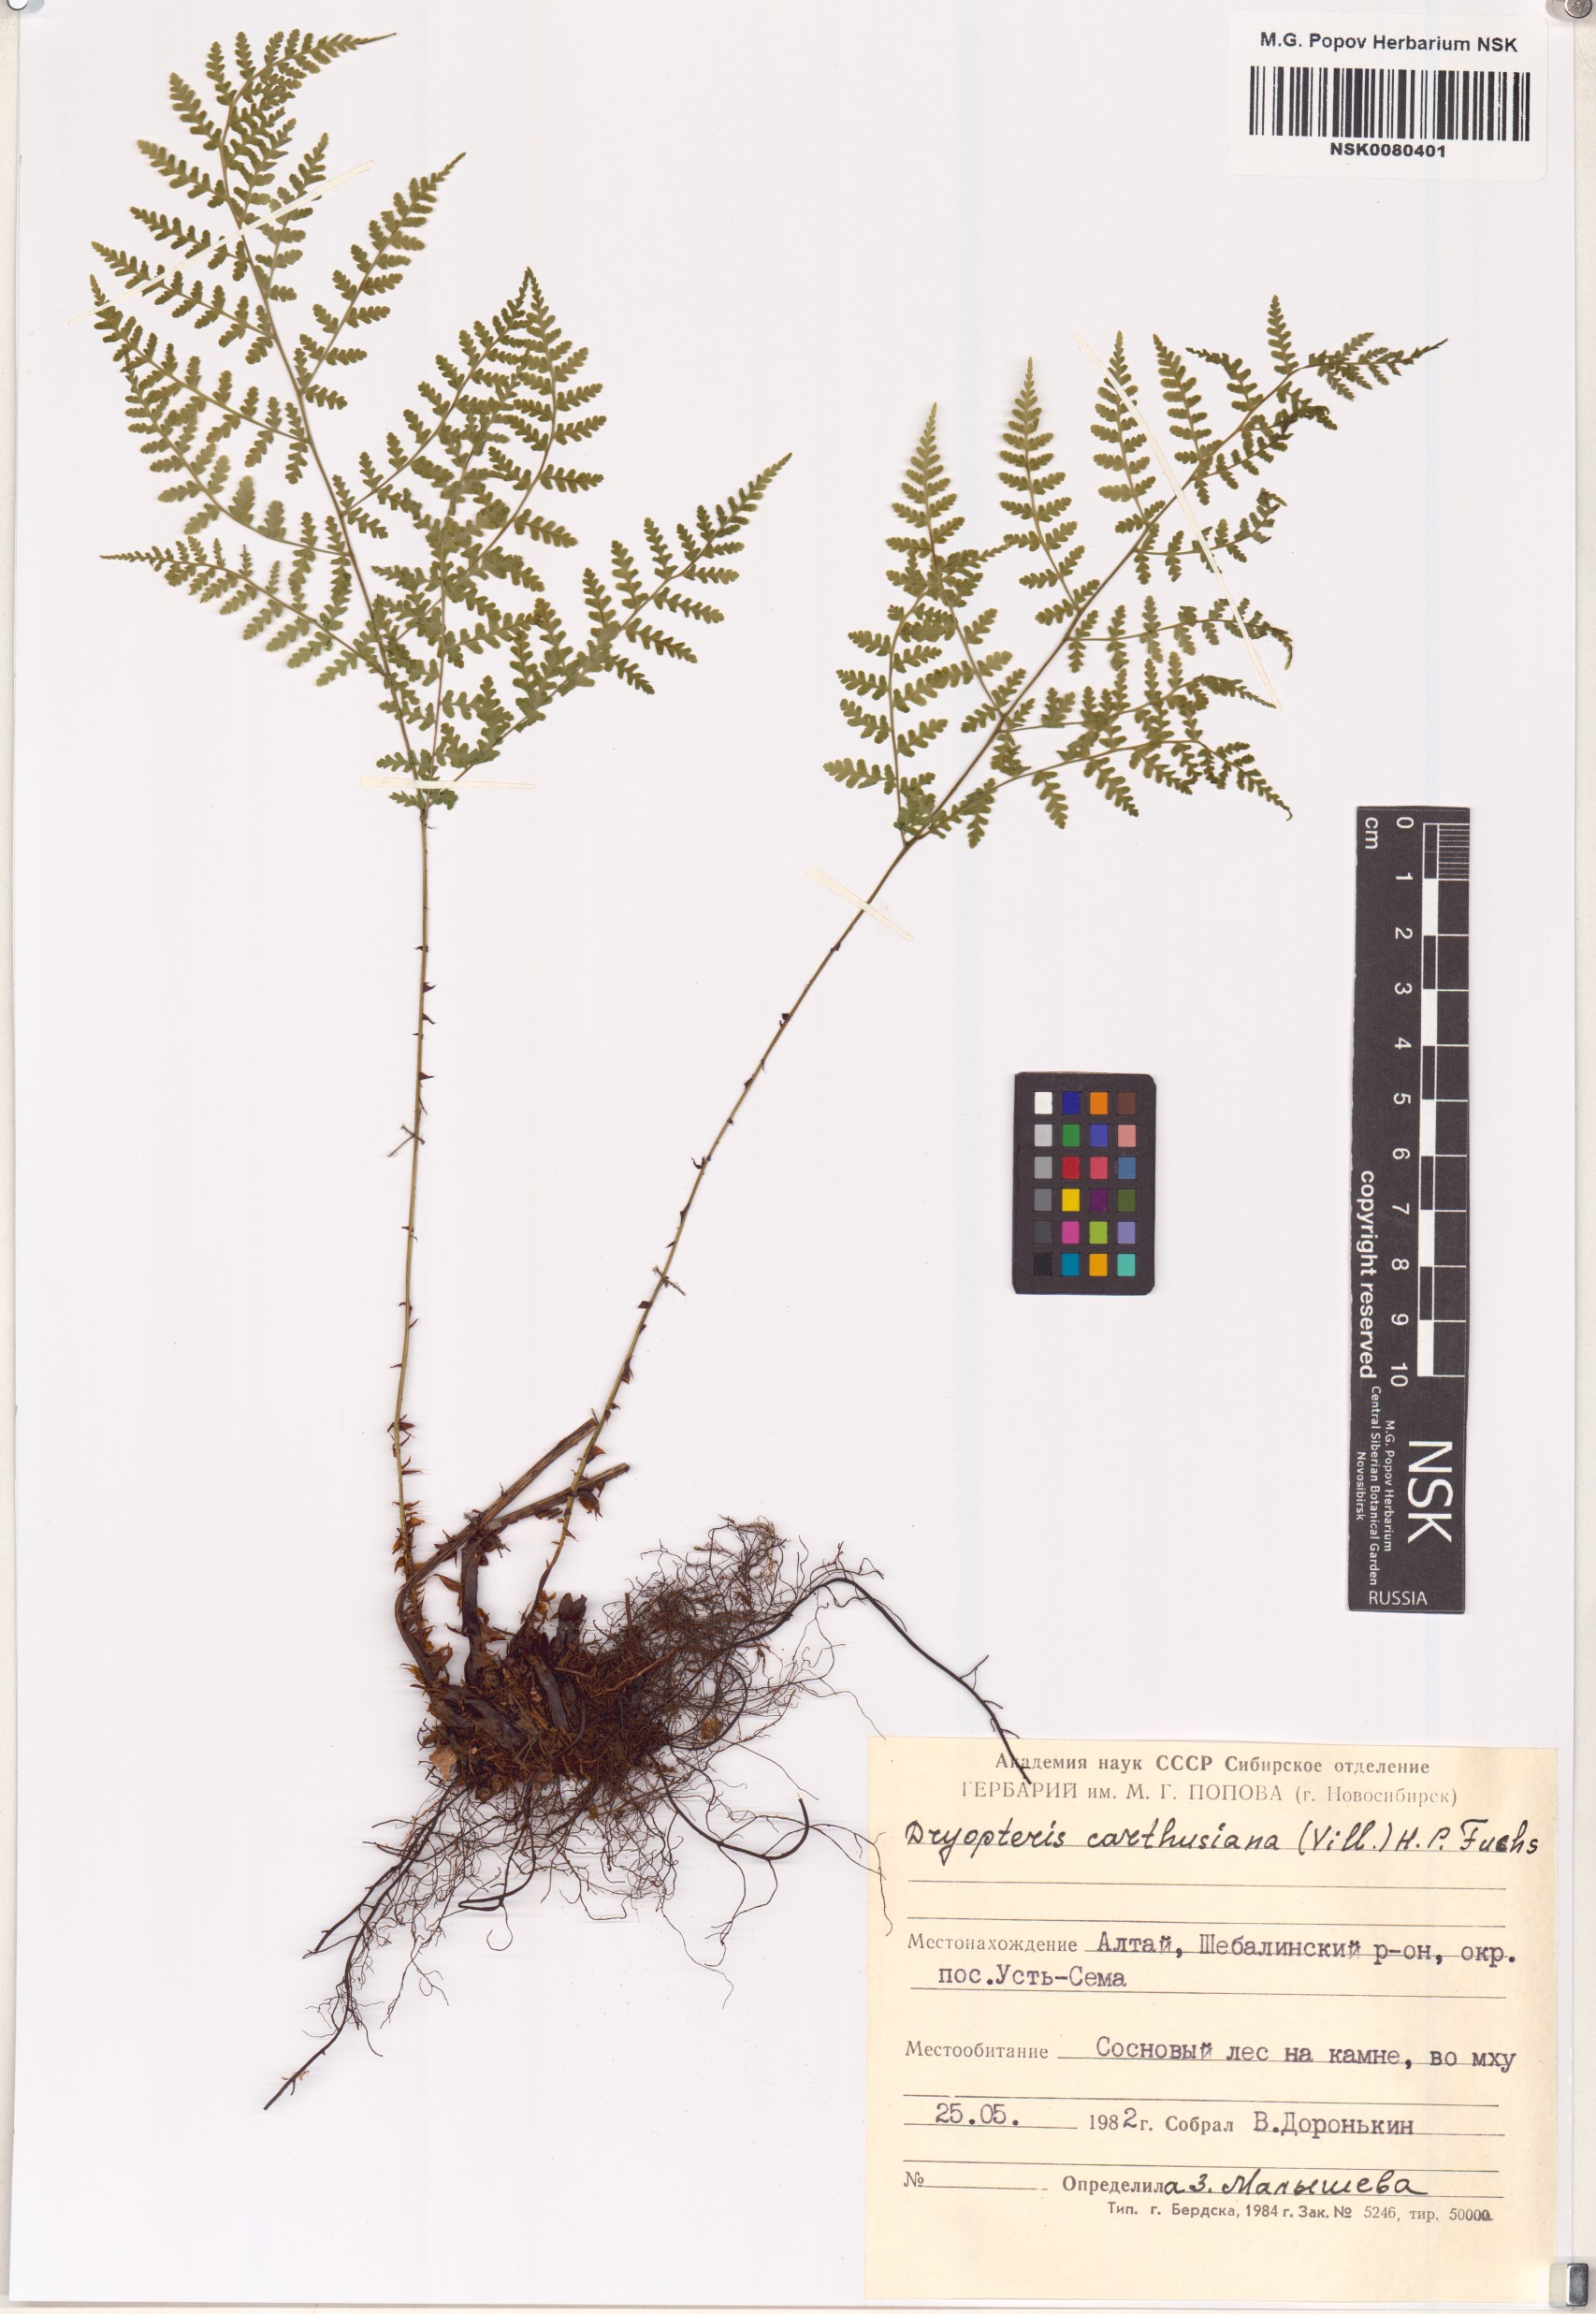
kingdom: Plantae
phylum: Tracheophyta
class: Polypodiopsida
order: Polypodiales
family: Dryopteridaceae
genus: Dryopteris
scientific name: Dryopteris carthusiana
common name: Narrow buckler-fern
